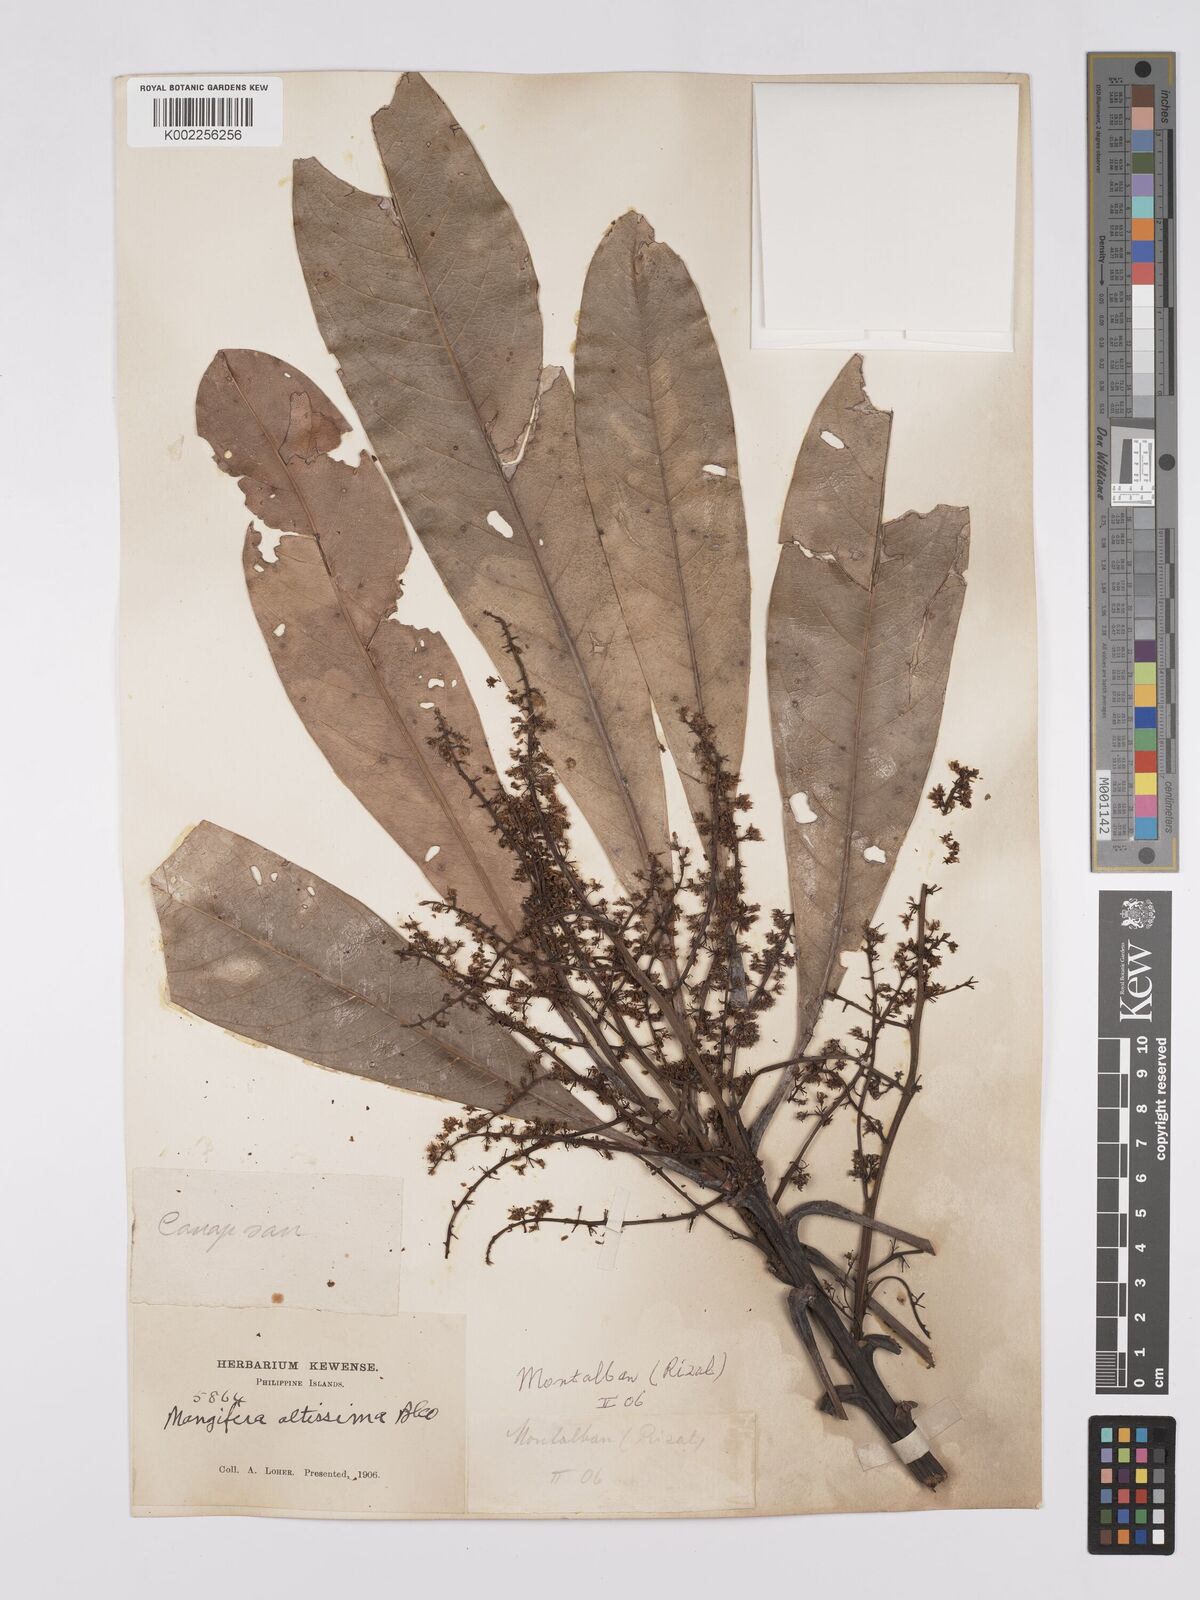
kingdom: Plantae
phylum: Tracheophyta
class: Magnoliopsida
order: Sapindales
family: Anacardiaceae
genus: Mangifera
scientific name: Mangifera altissima
